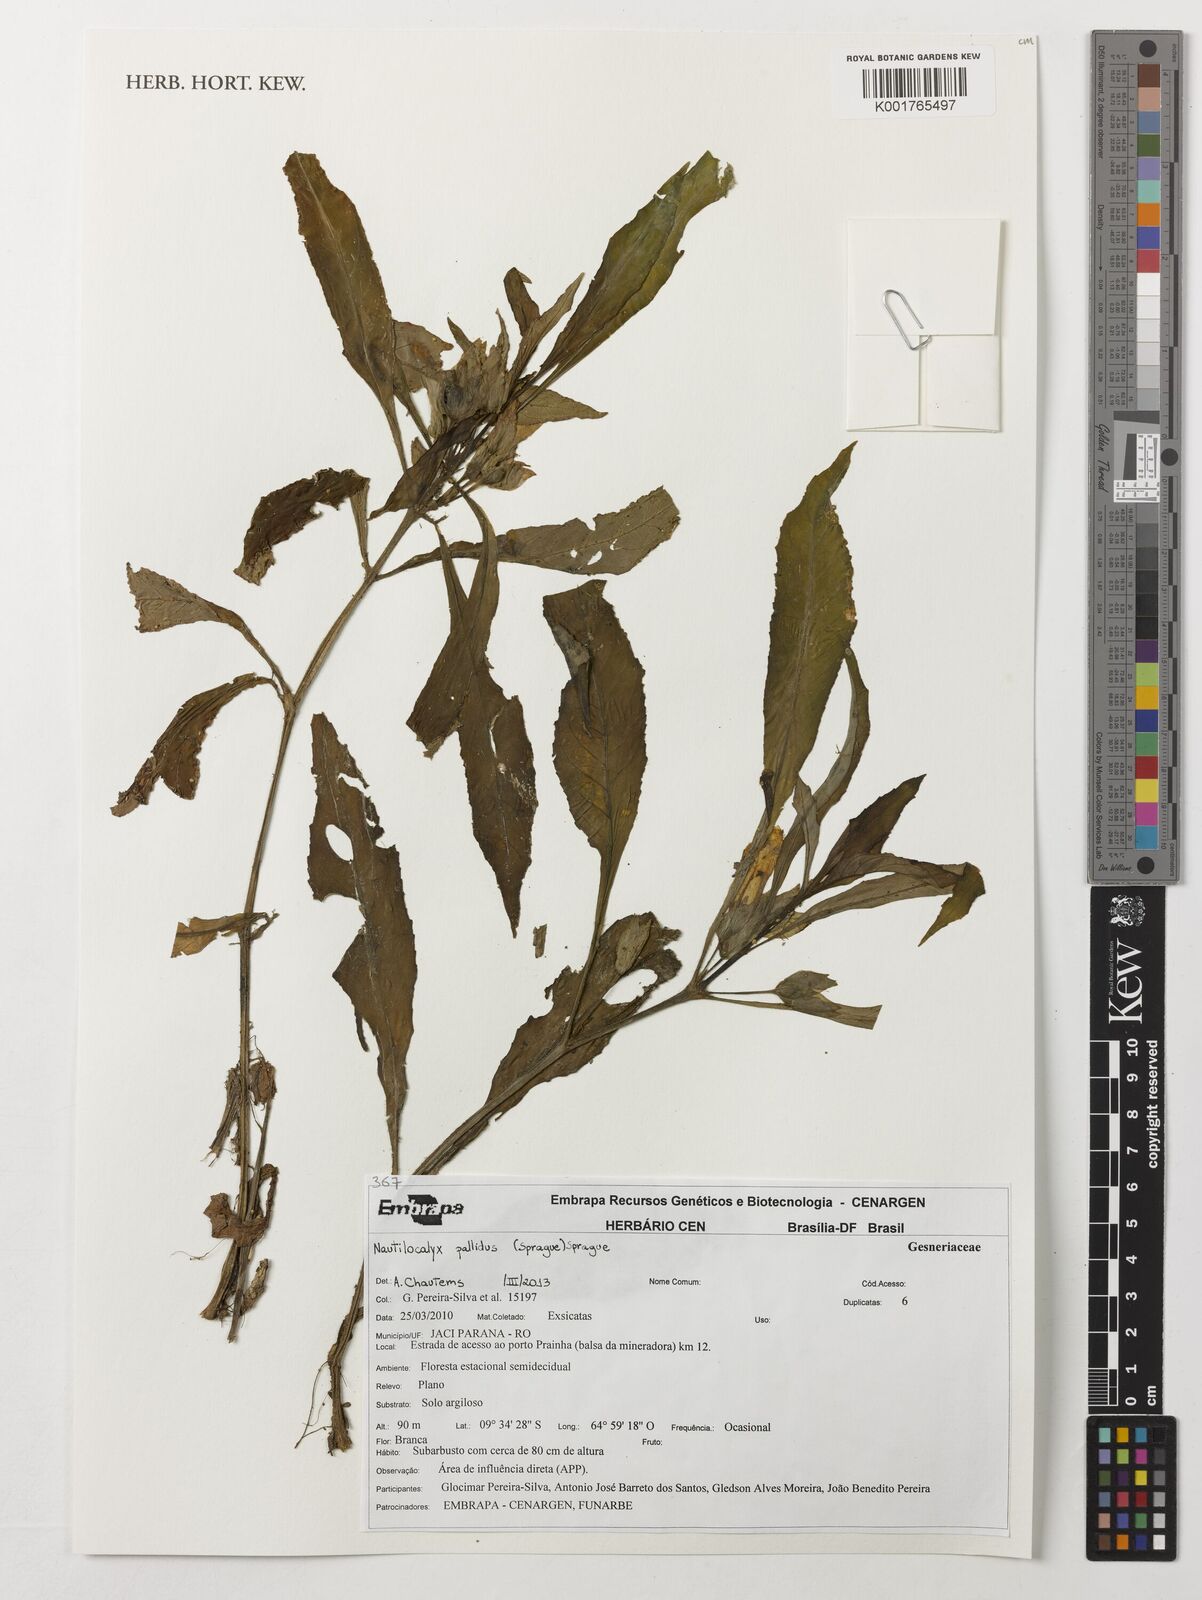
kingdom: Plantae
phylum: Tracheophyta
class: Magnoliopsida
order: Lamiales
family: Gesneriaceae
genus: Nautilocalyx
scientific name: Nautilocalyx pallidus
